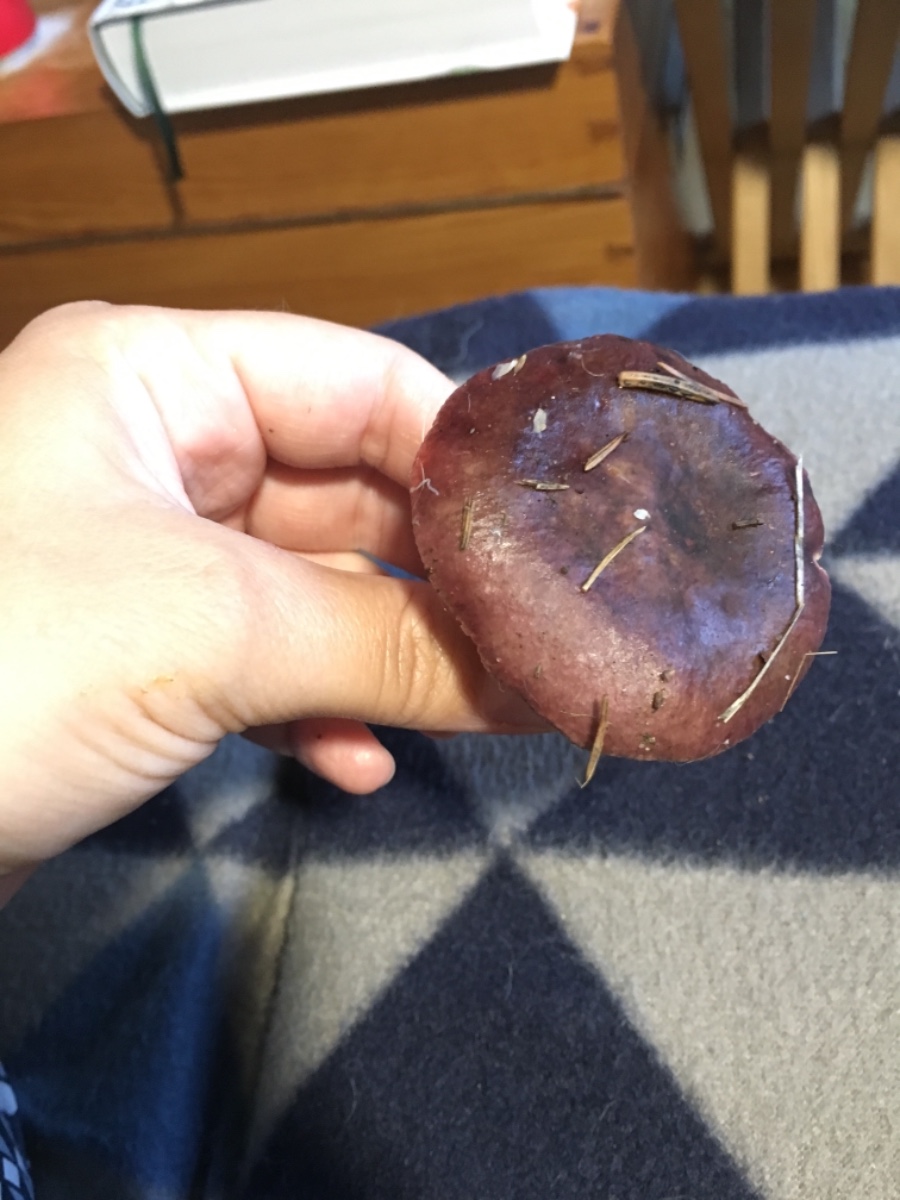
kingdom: Fungi
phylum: Basidiomycota
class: Agaricomycetes
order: Russulales
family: Russulaceae
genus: Russula
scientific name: Russula queletii
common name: Quélets skørhat
